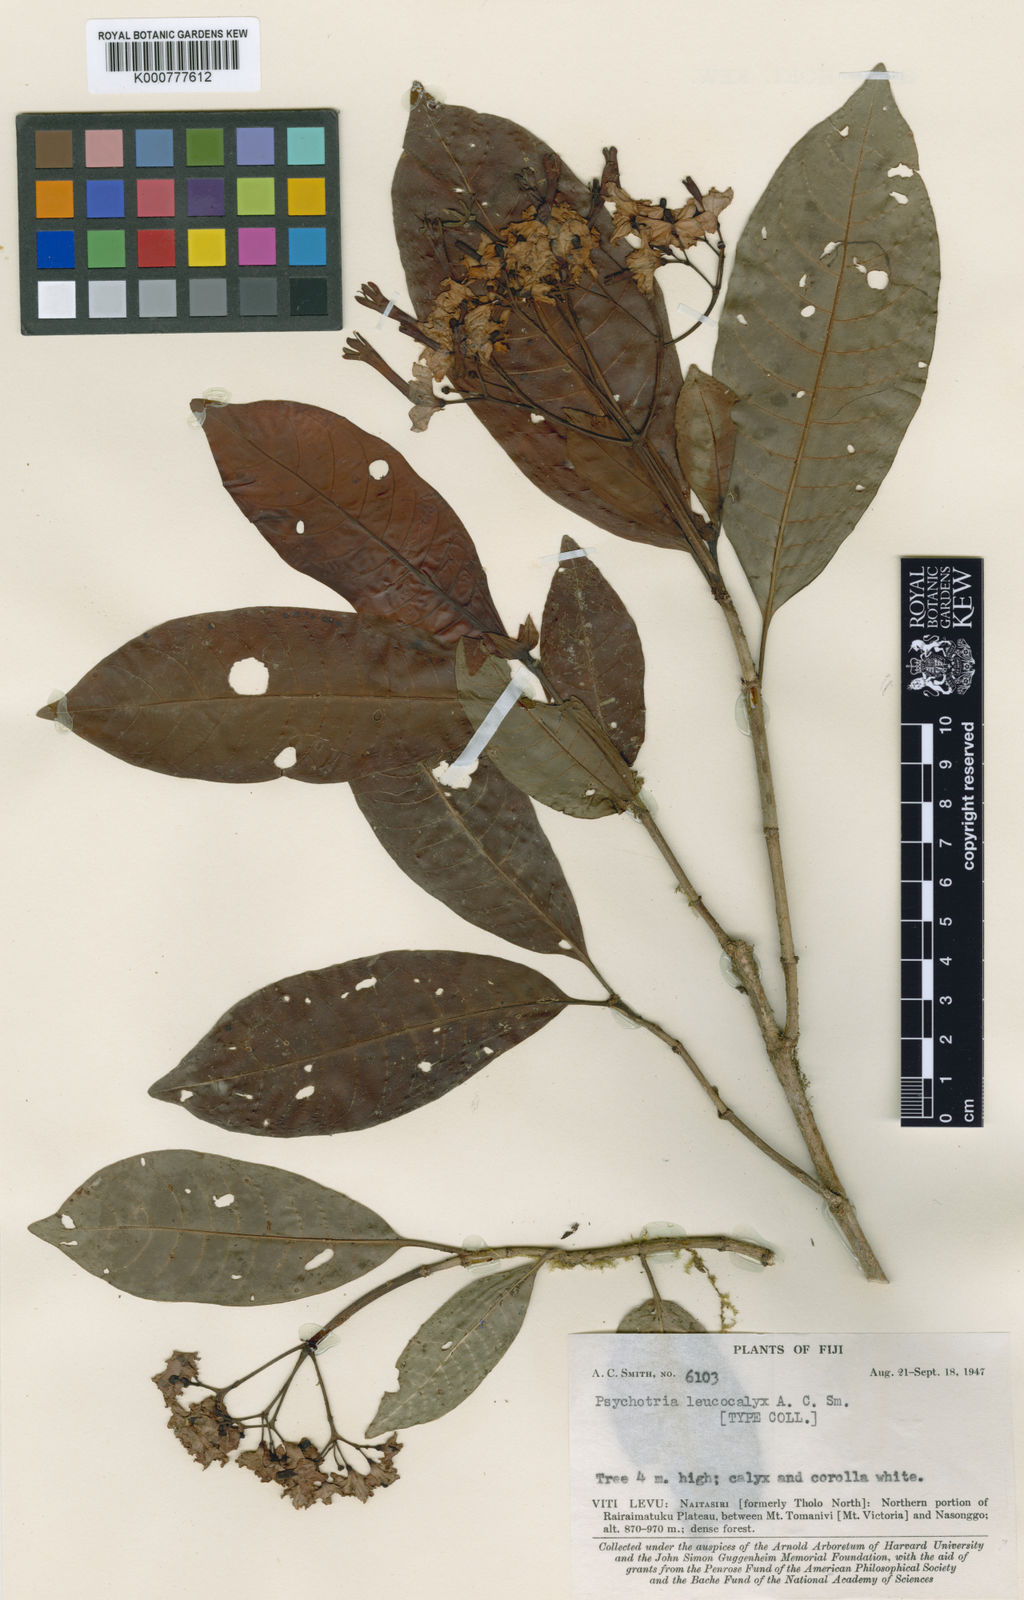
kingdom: Plantae
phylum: Tracheophyta
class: Magnoliopsida
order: Gentianales
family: Rubiaceae
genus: Psychotria
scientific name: Psychotria leucocalyx
